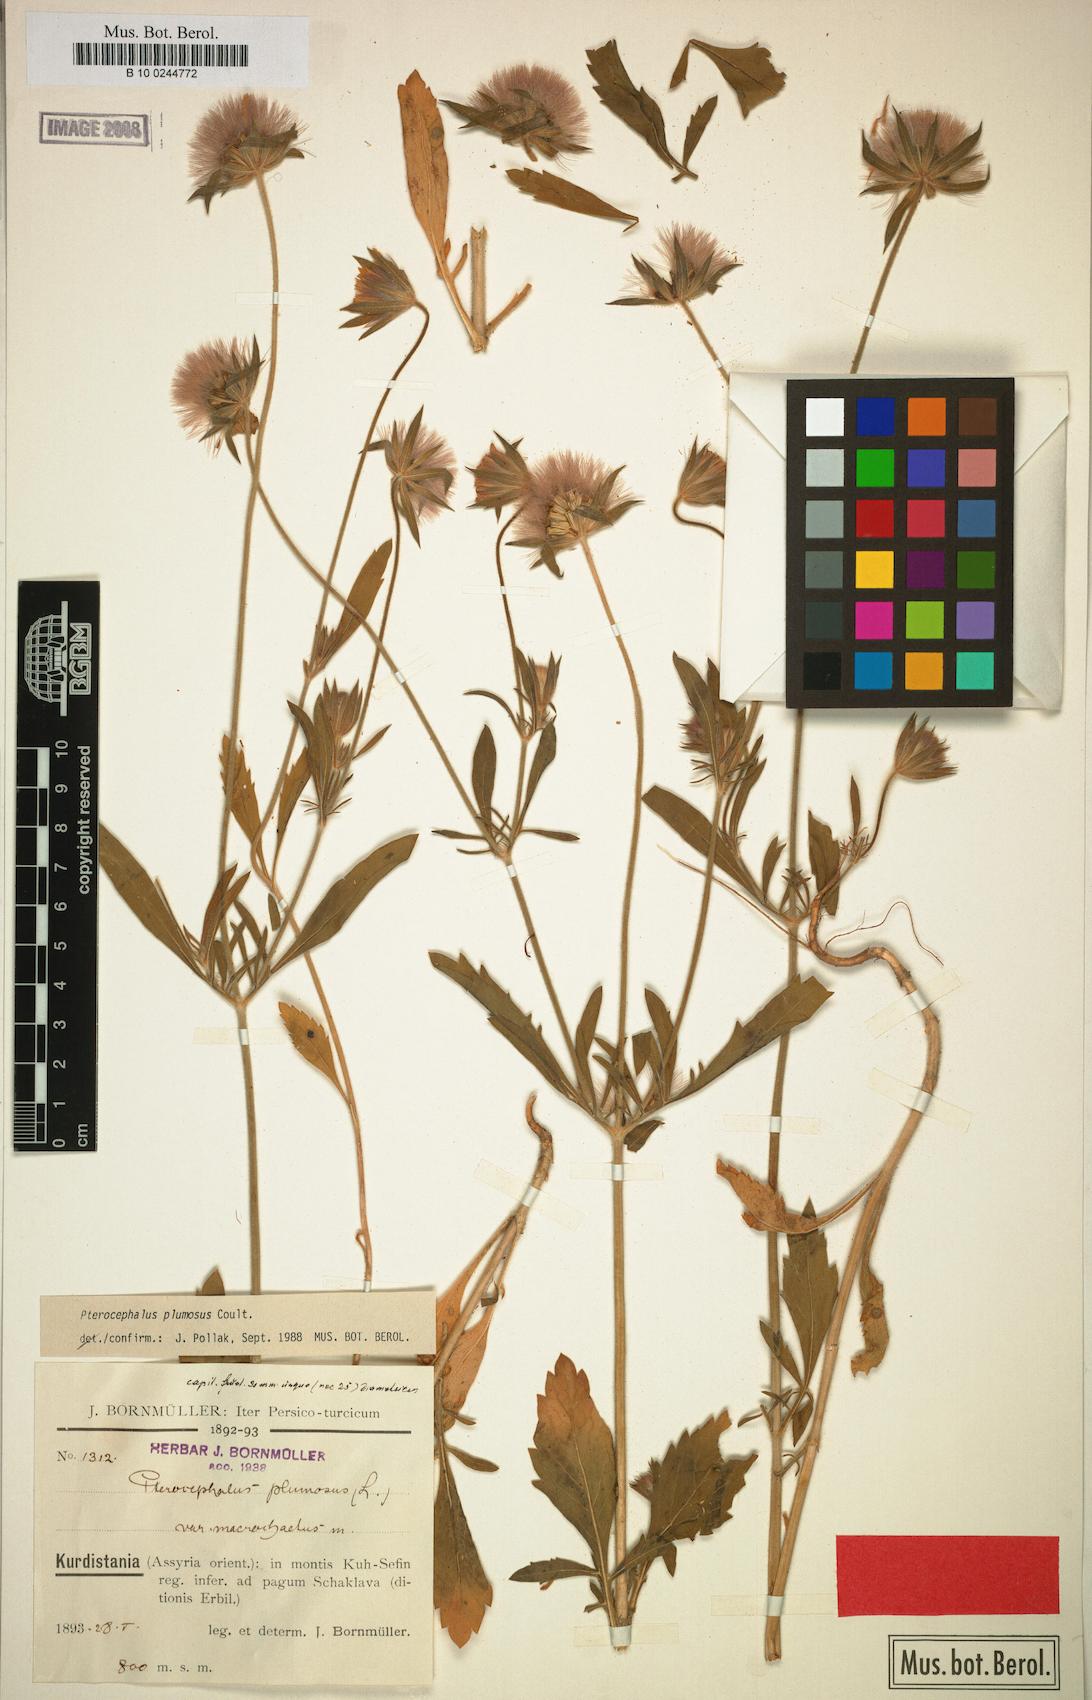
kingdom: Plantae
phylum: Tracheophyta
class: Magnoliopsida
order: Dipsacales
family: Caprifoliaceae
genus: Pterocephalus
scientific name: Pterocephalus plumosus
